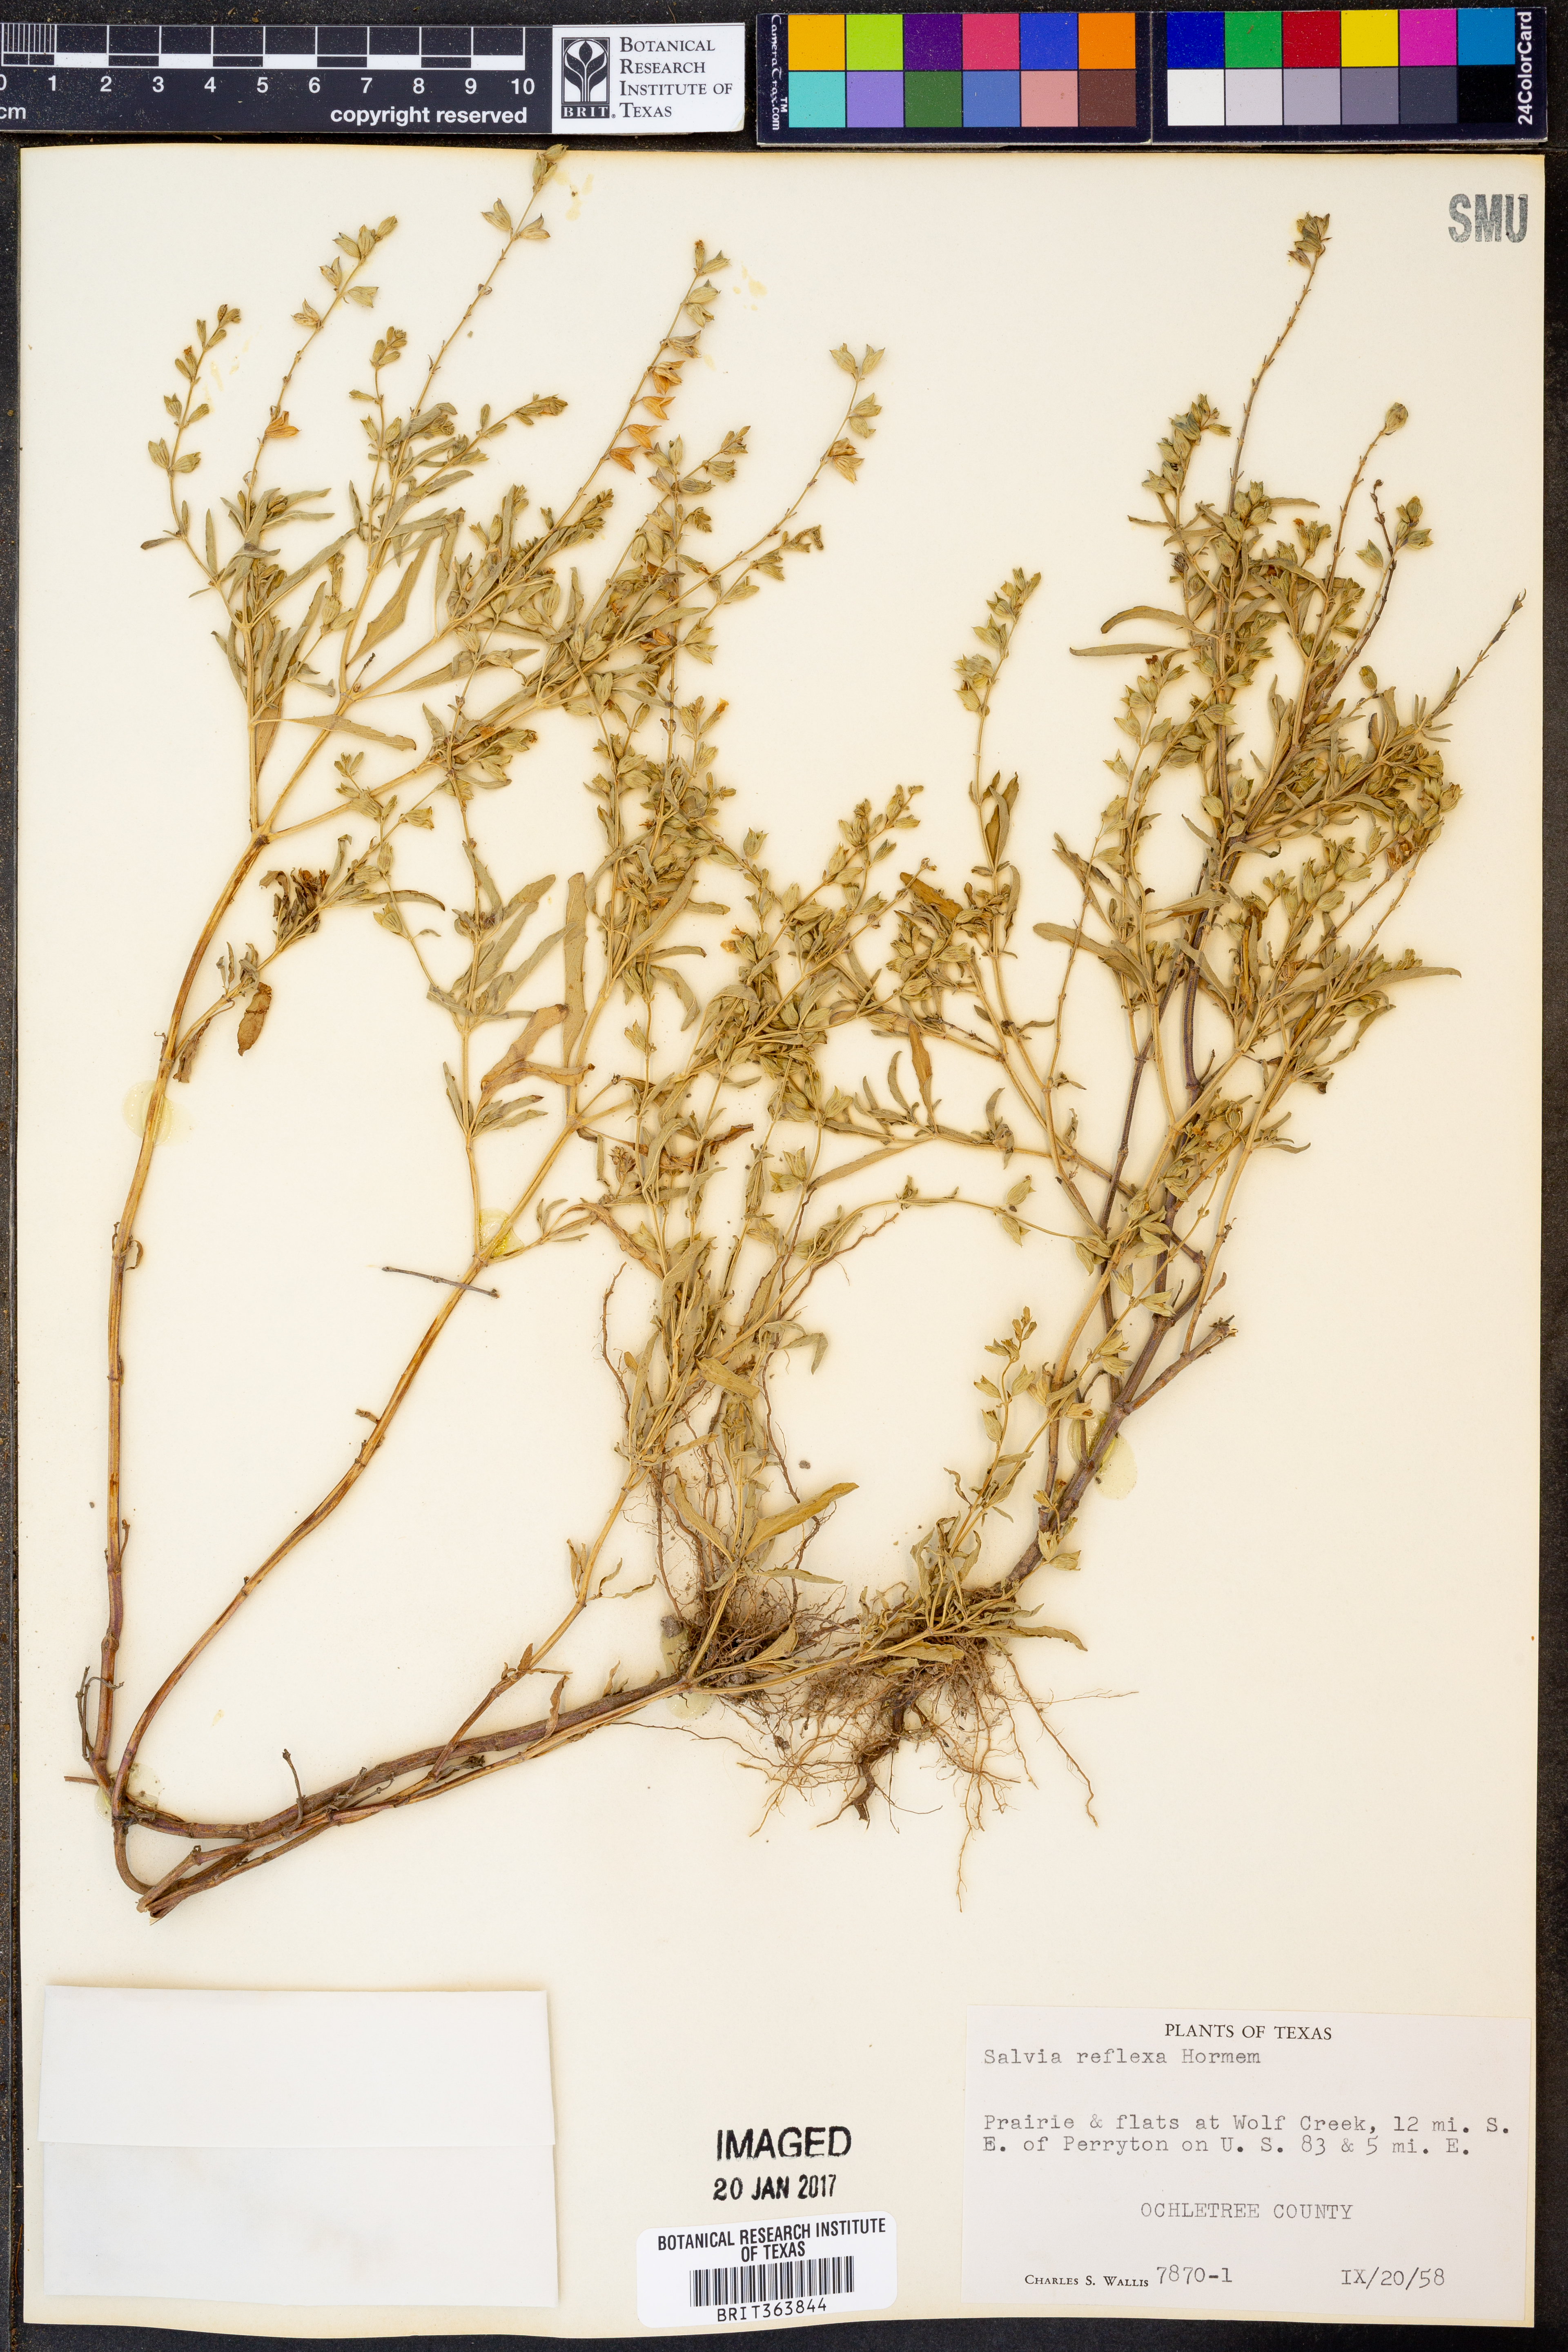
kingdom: Plantae
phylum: Tracheophyta
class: Magnoliopsida
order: Lamiales
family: Lamiaceae
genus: Salvia
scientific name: Salvia reflexa
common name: Mintweed
